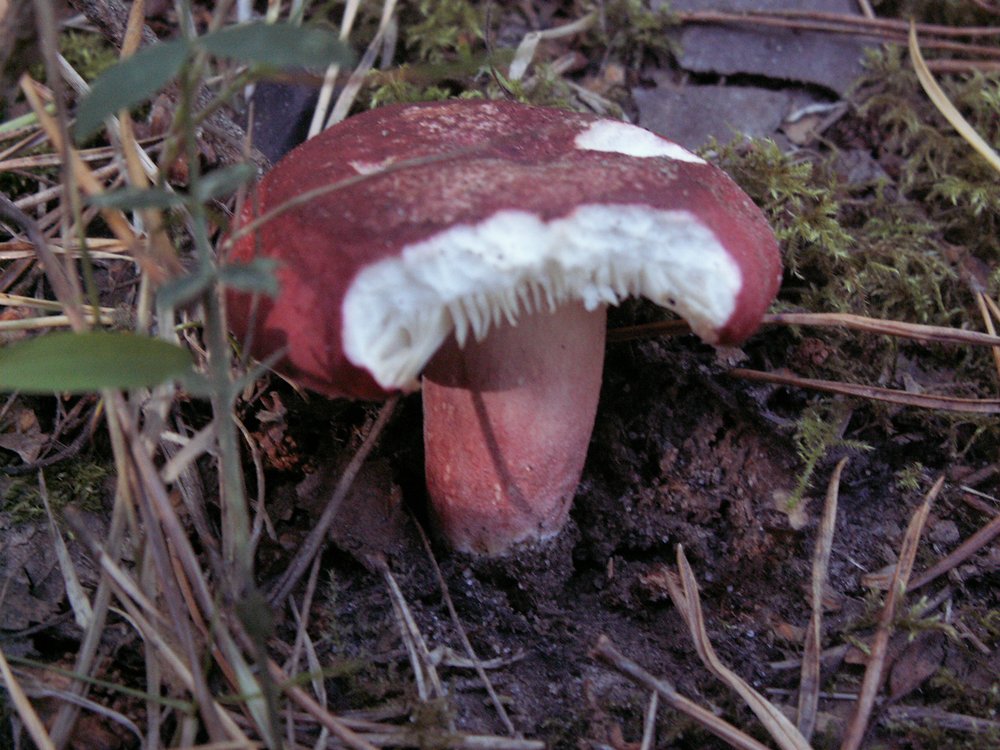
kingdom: Fungi
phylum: Basidiomycota
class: Agaricomycetes
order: Russulales
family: Russulaceae
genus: Russula
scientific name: Russula sanguinea
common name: blodrød skørhat
